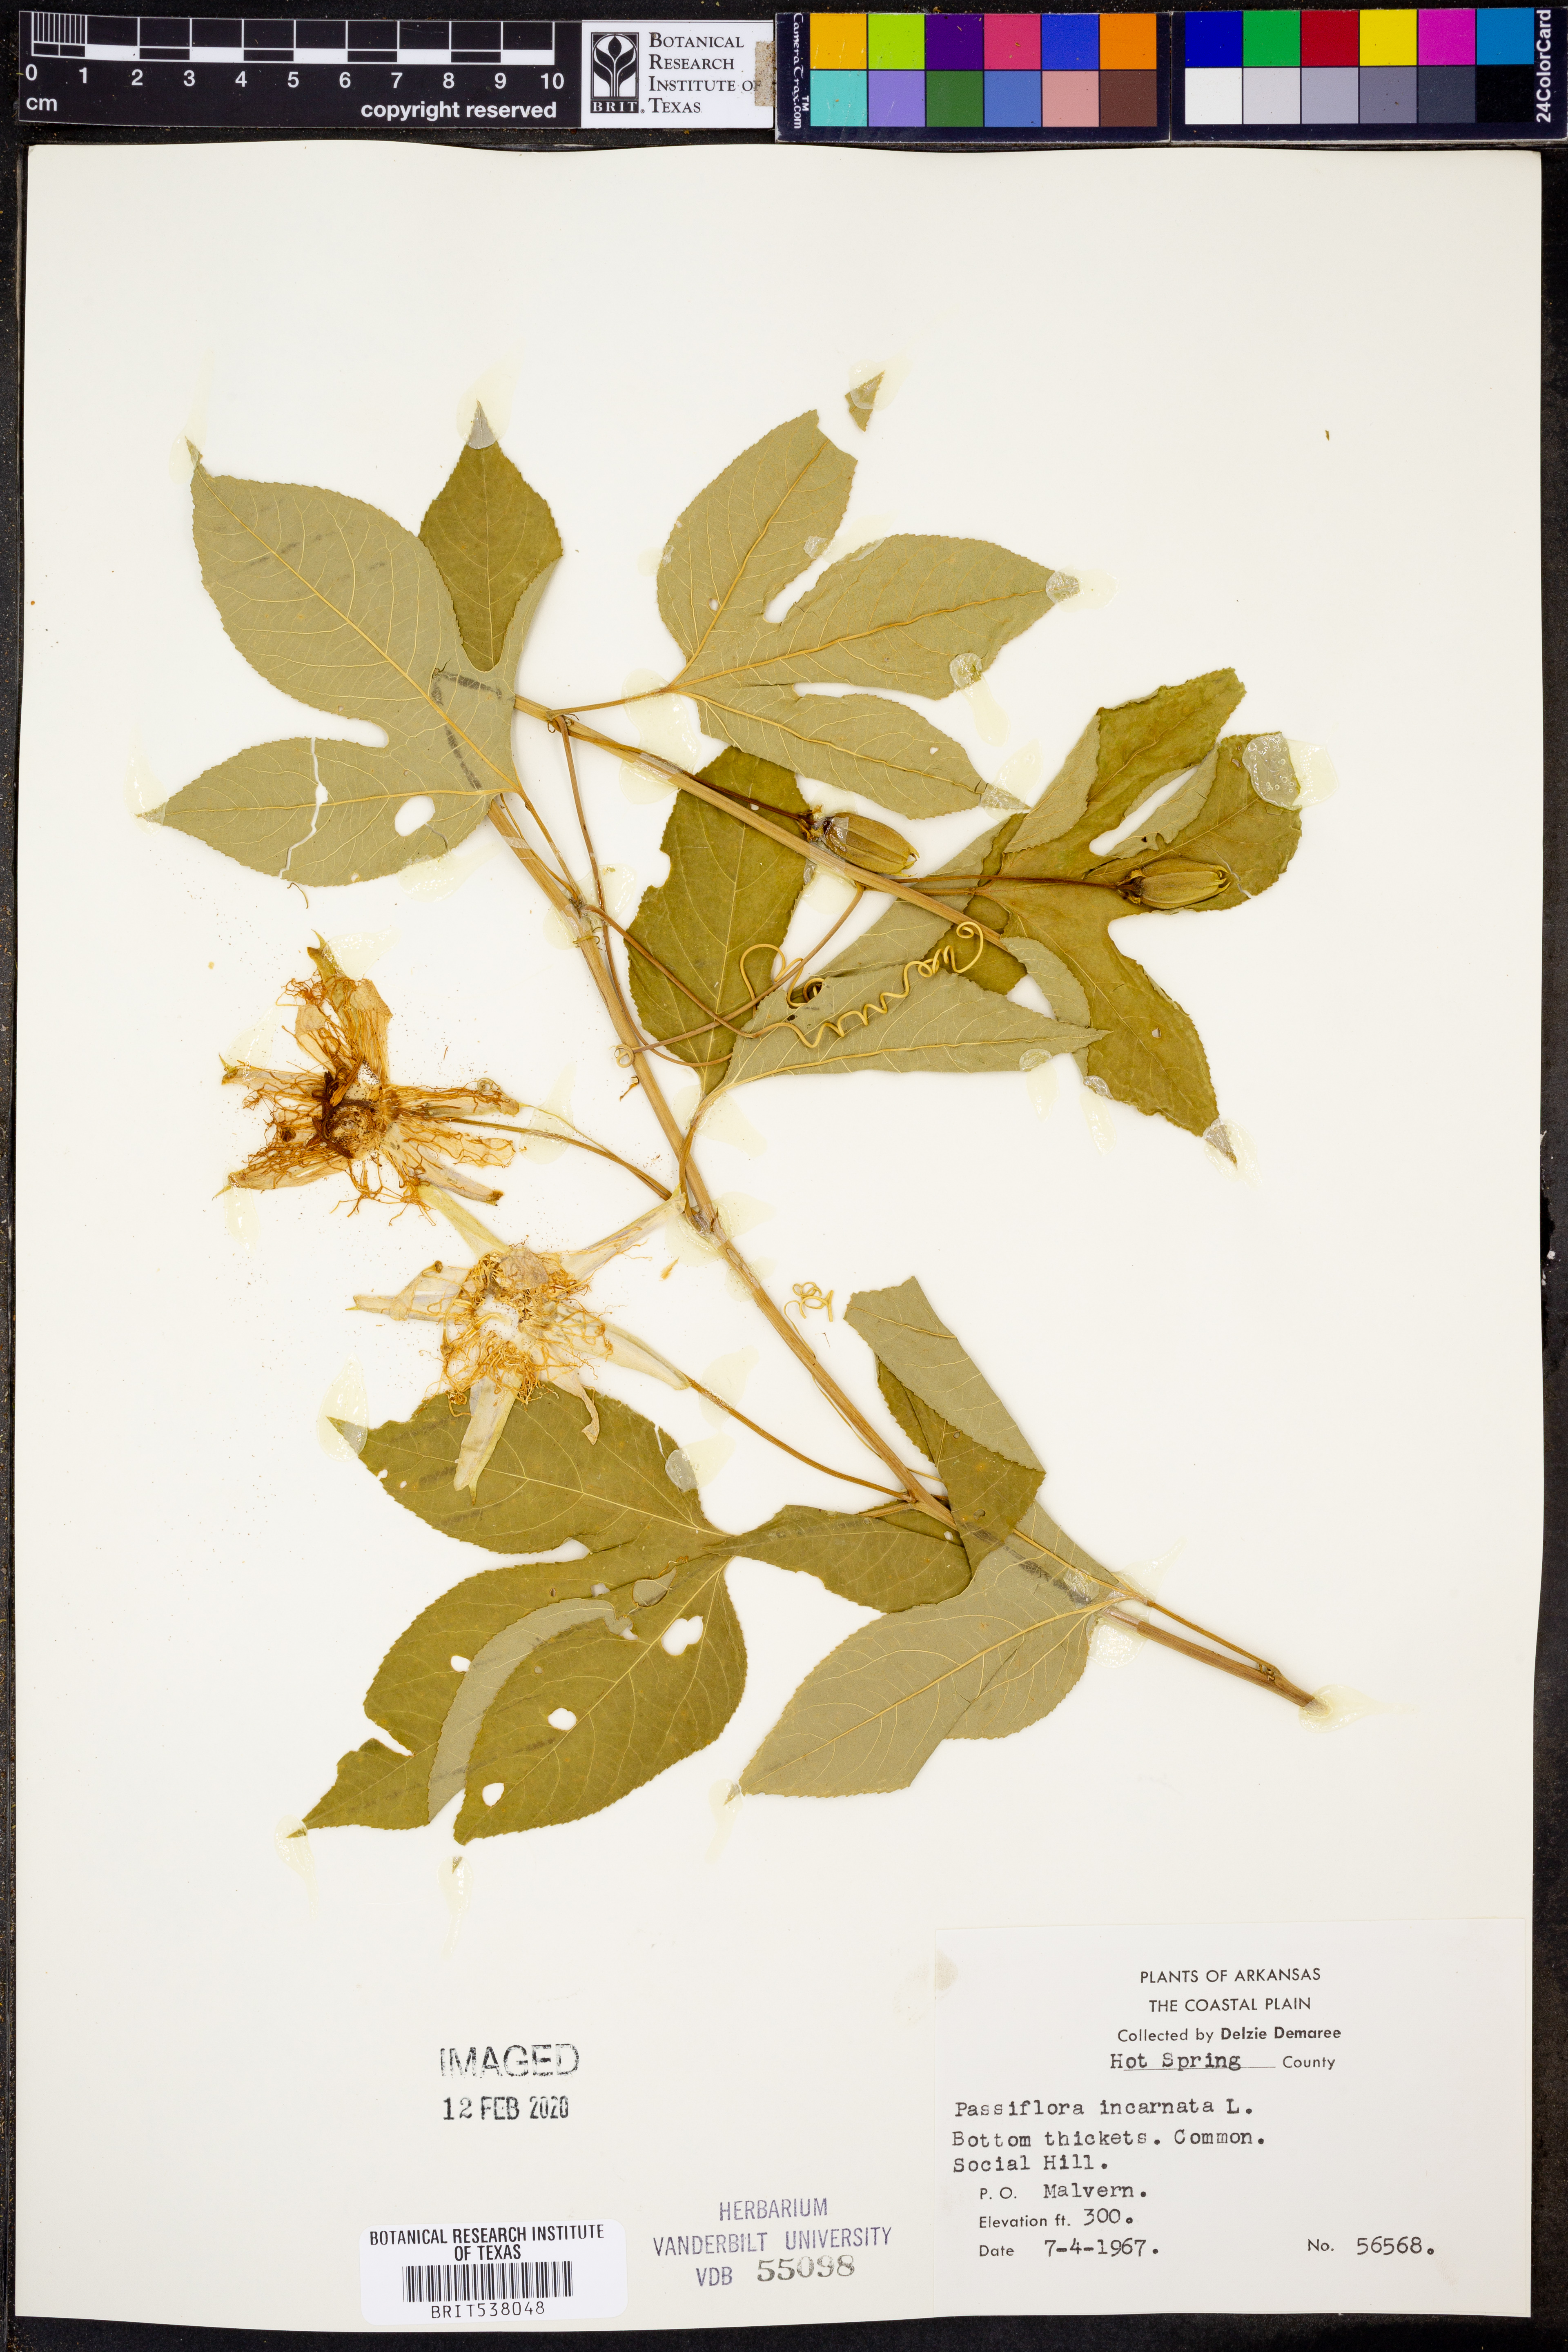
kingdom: Plantae
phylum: Tracheophyta
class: Magnoliopsida
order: Malpighiales
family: Passifloraceae
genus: Passiflora
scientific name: Passiflora incarnata
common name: Apricot-vine
